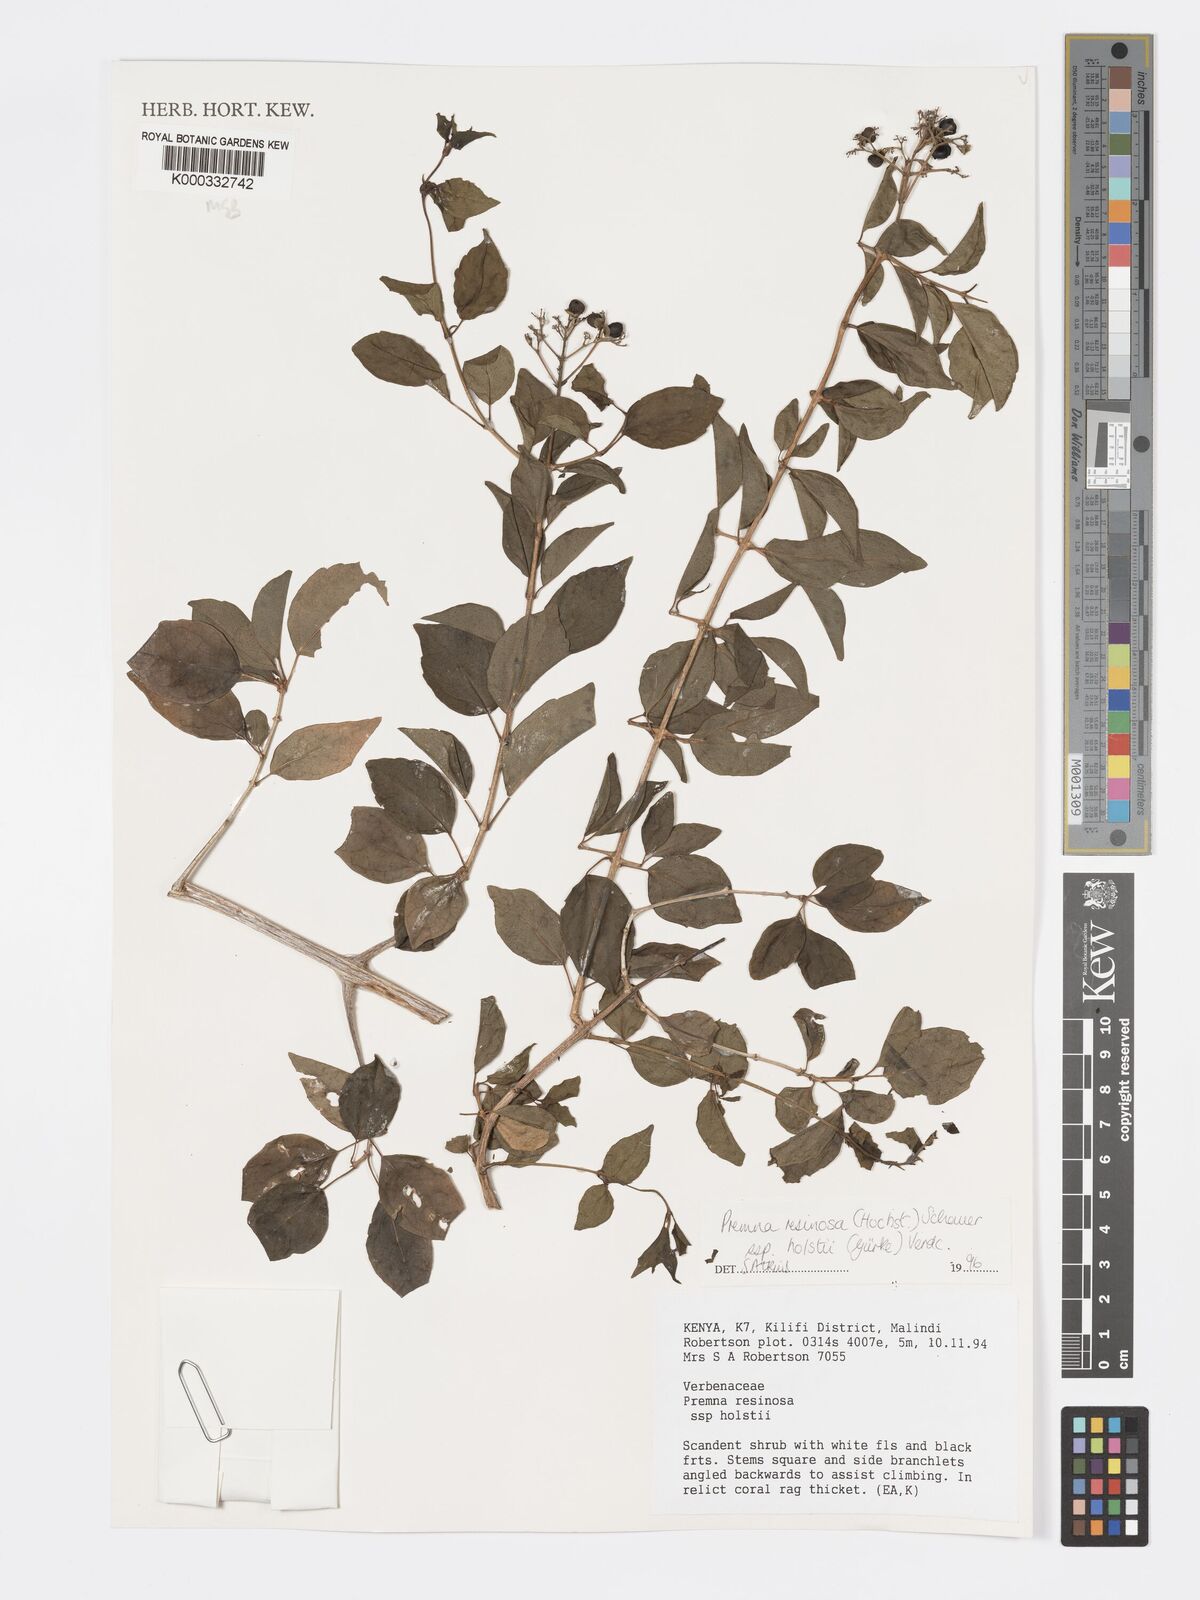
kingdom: Plantae
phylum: Tracheophyta
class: Magnoliopsida
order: Lamiales
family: Lamiaceae
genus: Premna
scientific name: Premna resinosa
